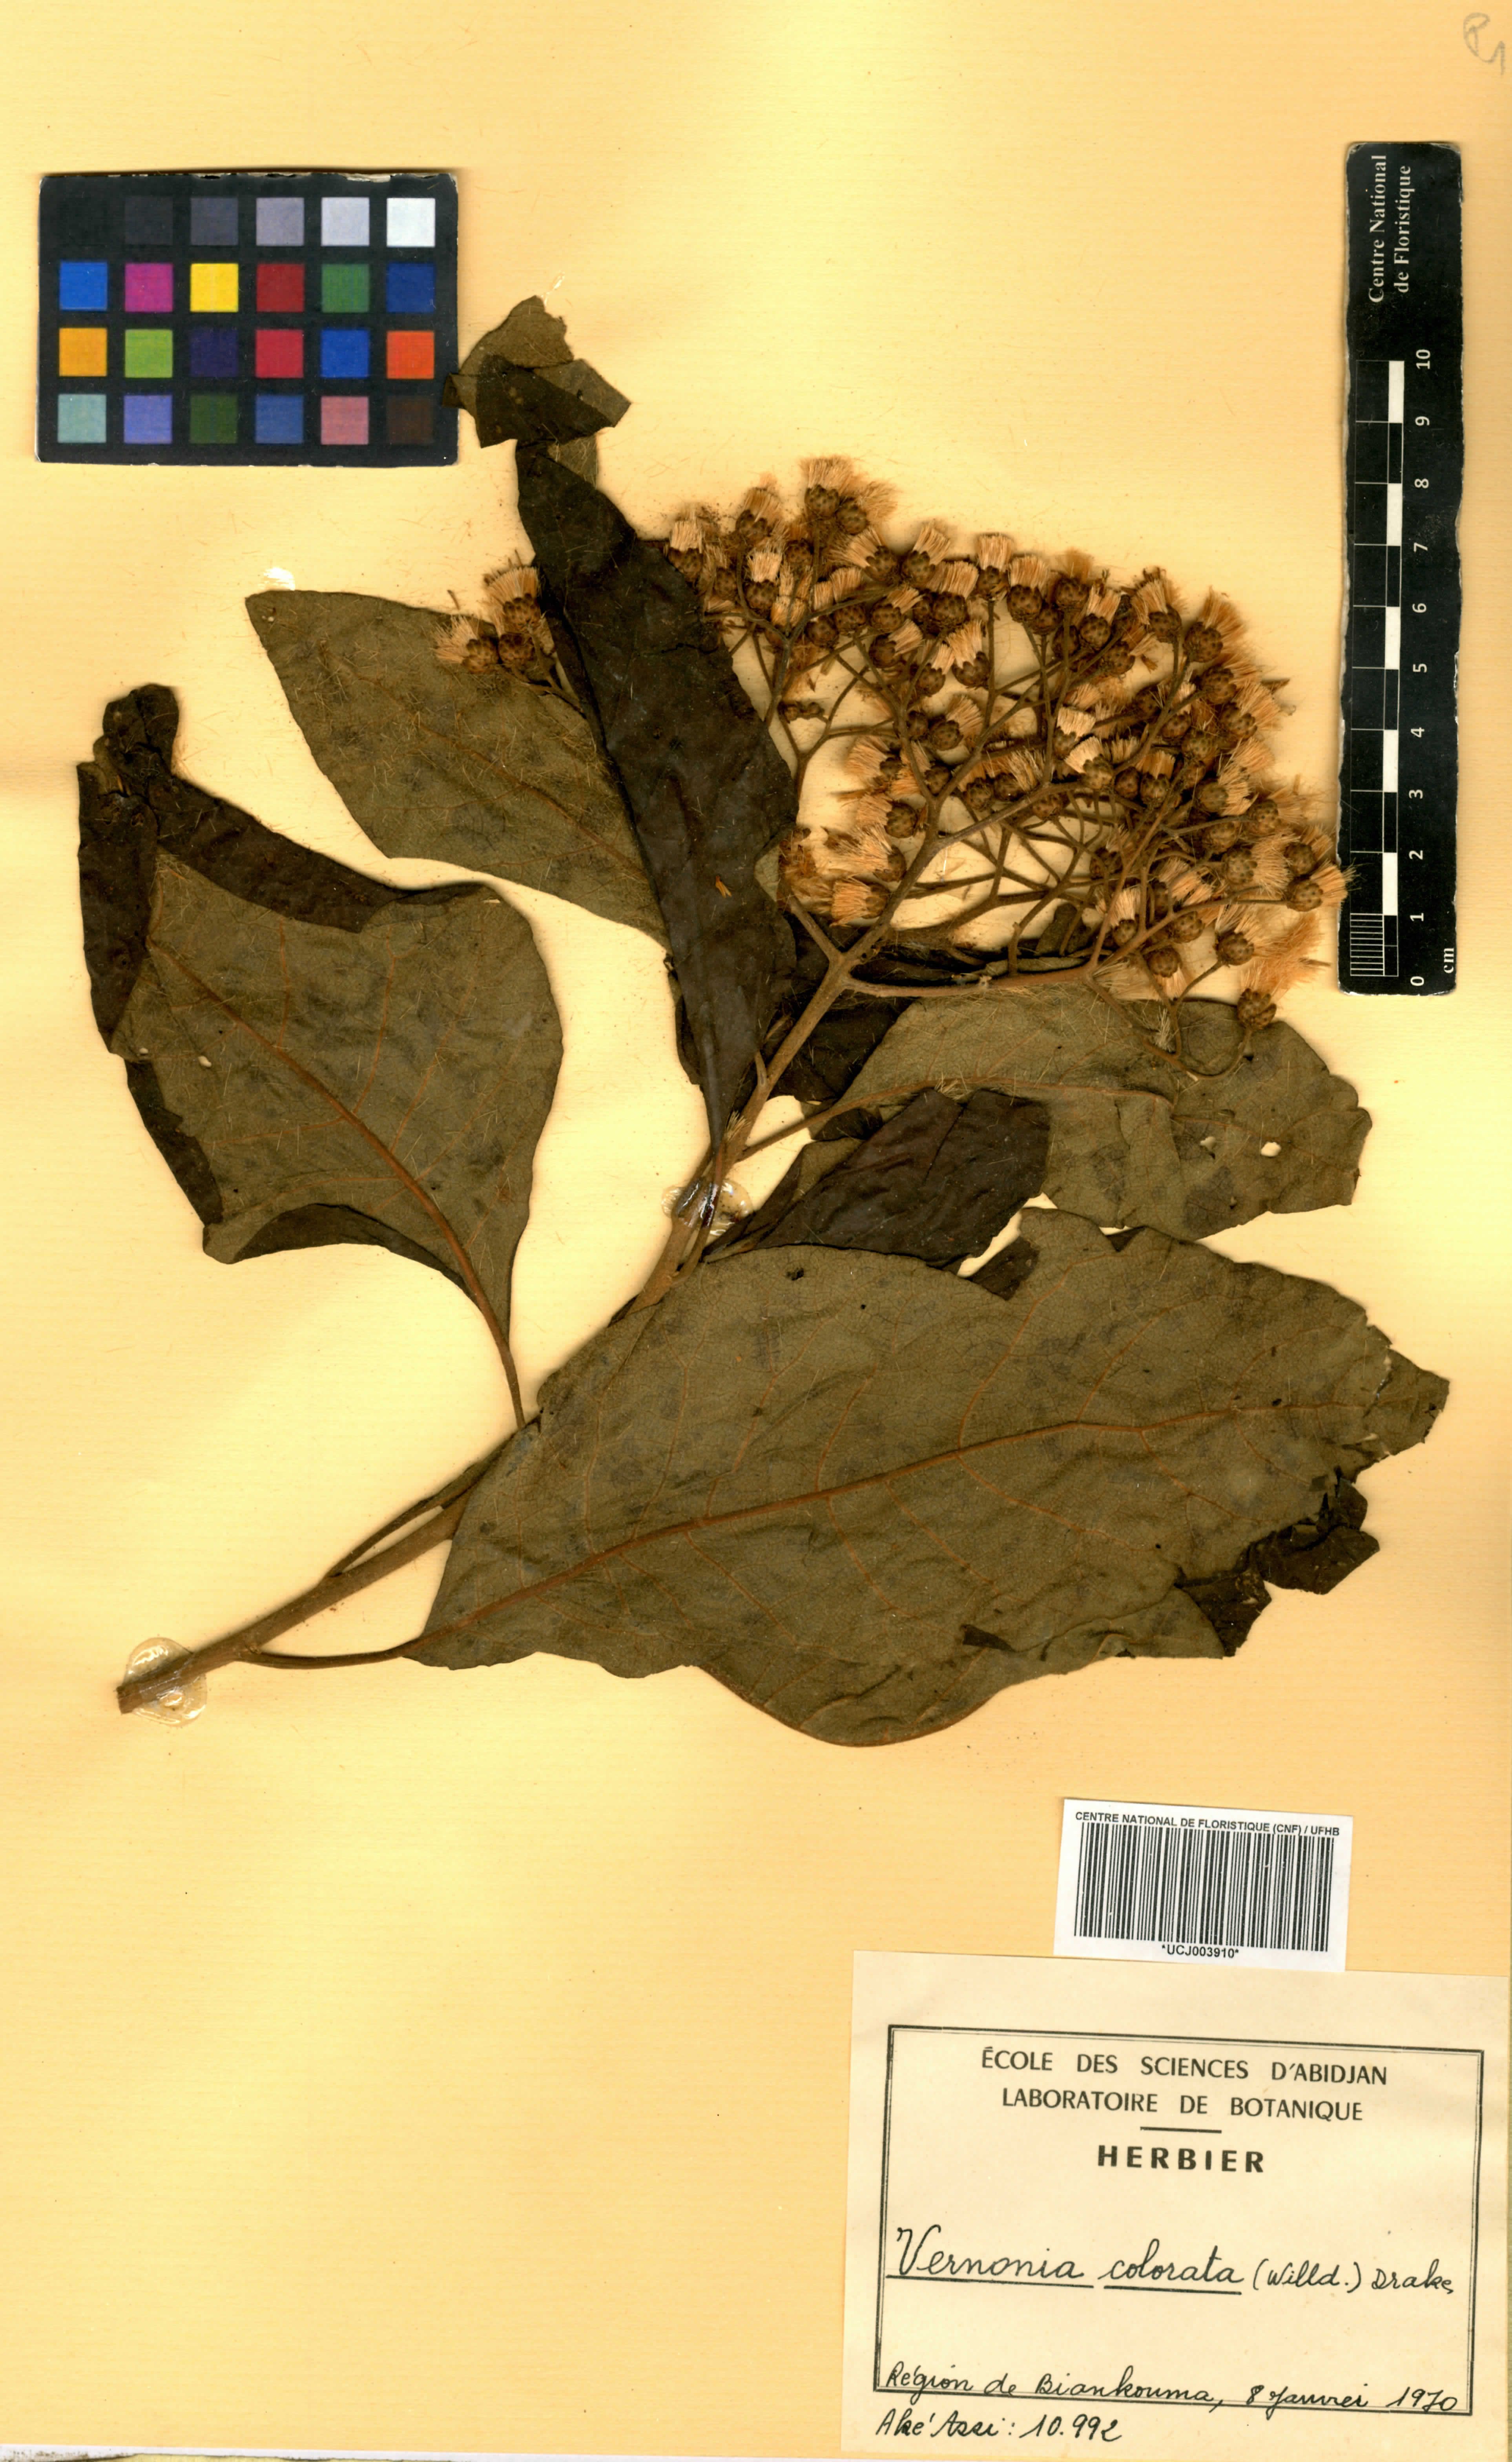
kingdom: Plantae
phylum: Tracheophyta
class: Magnoliopsida
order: Asterales
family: Asteraceae
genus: Vernonia
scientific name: Vernonia colorata
